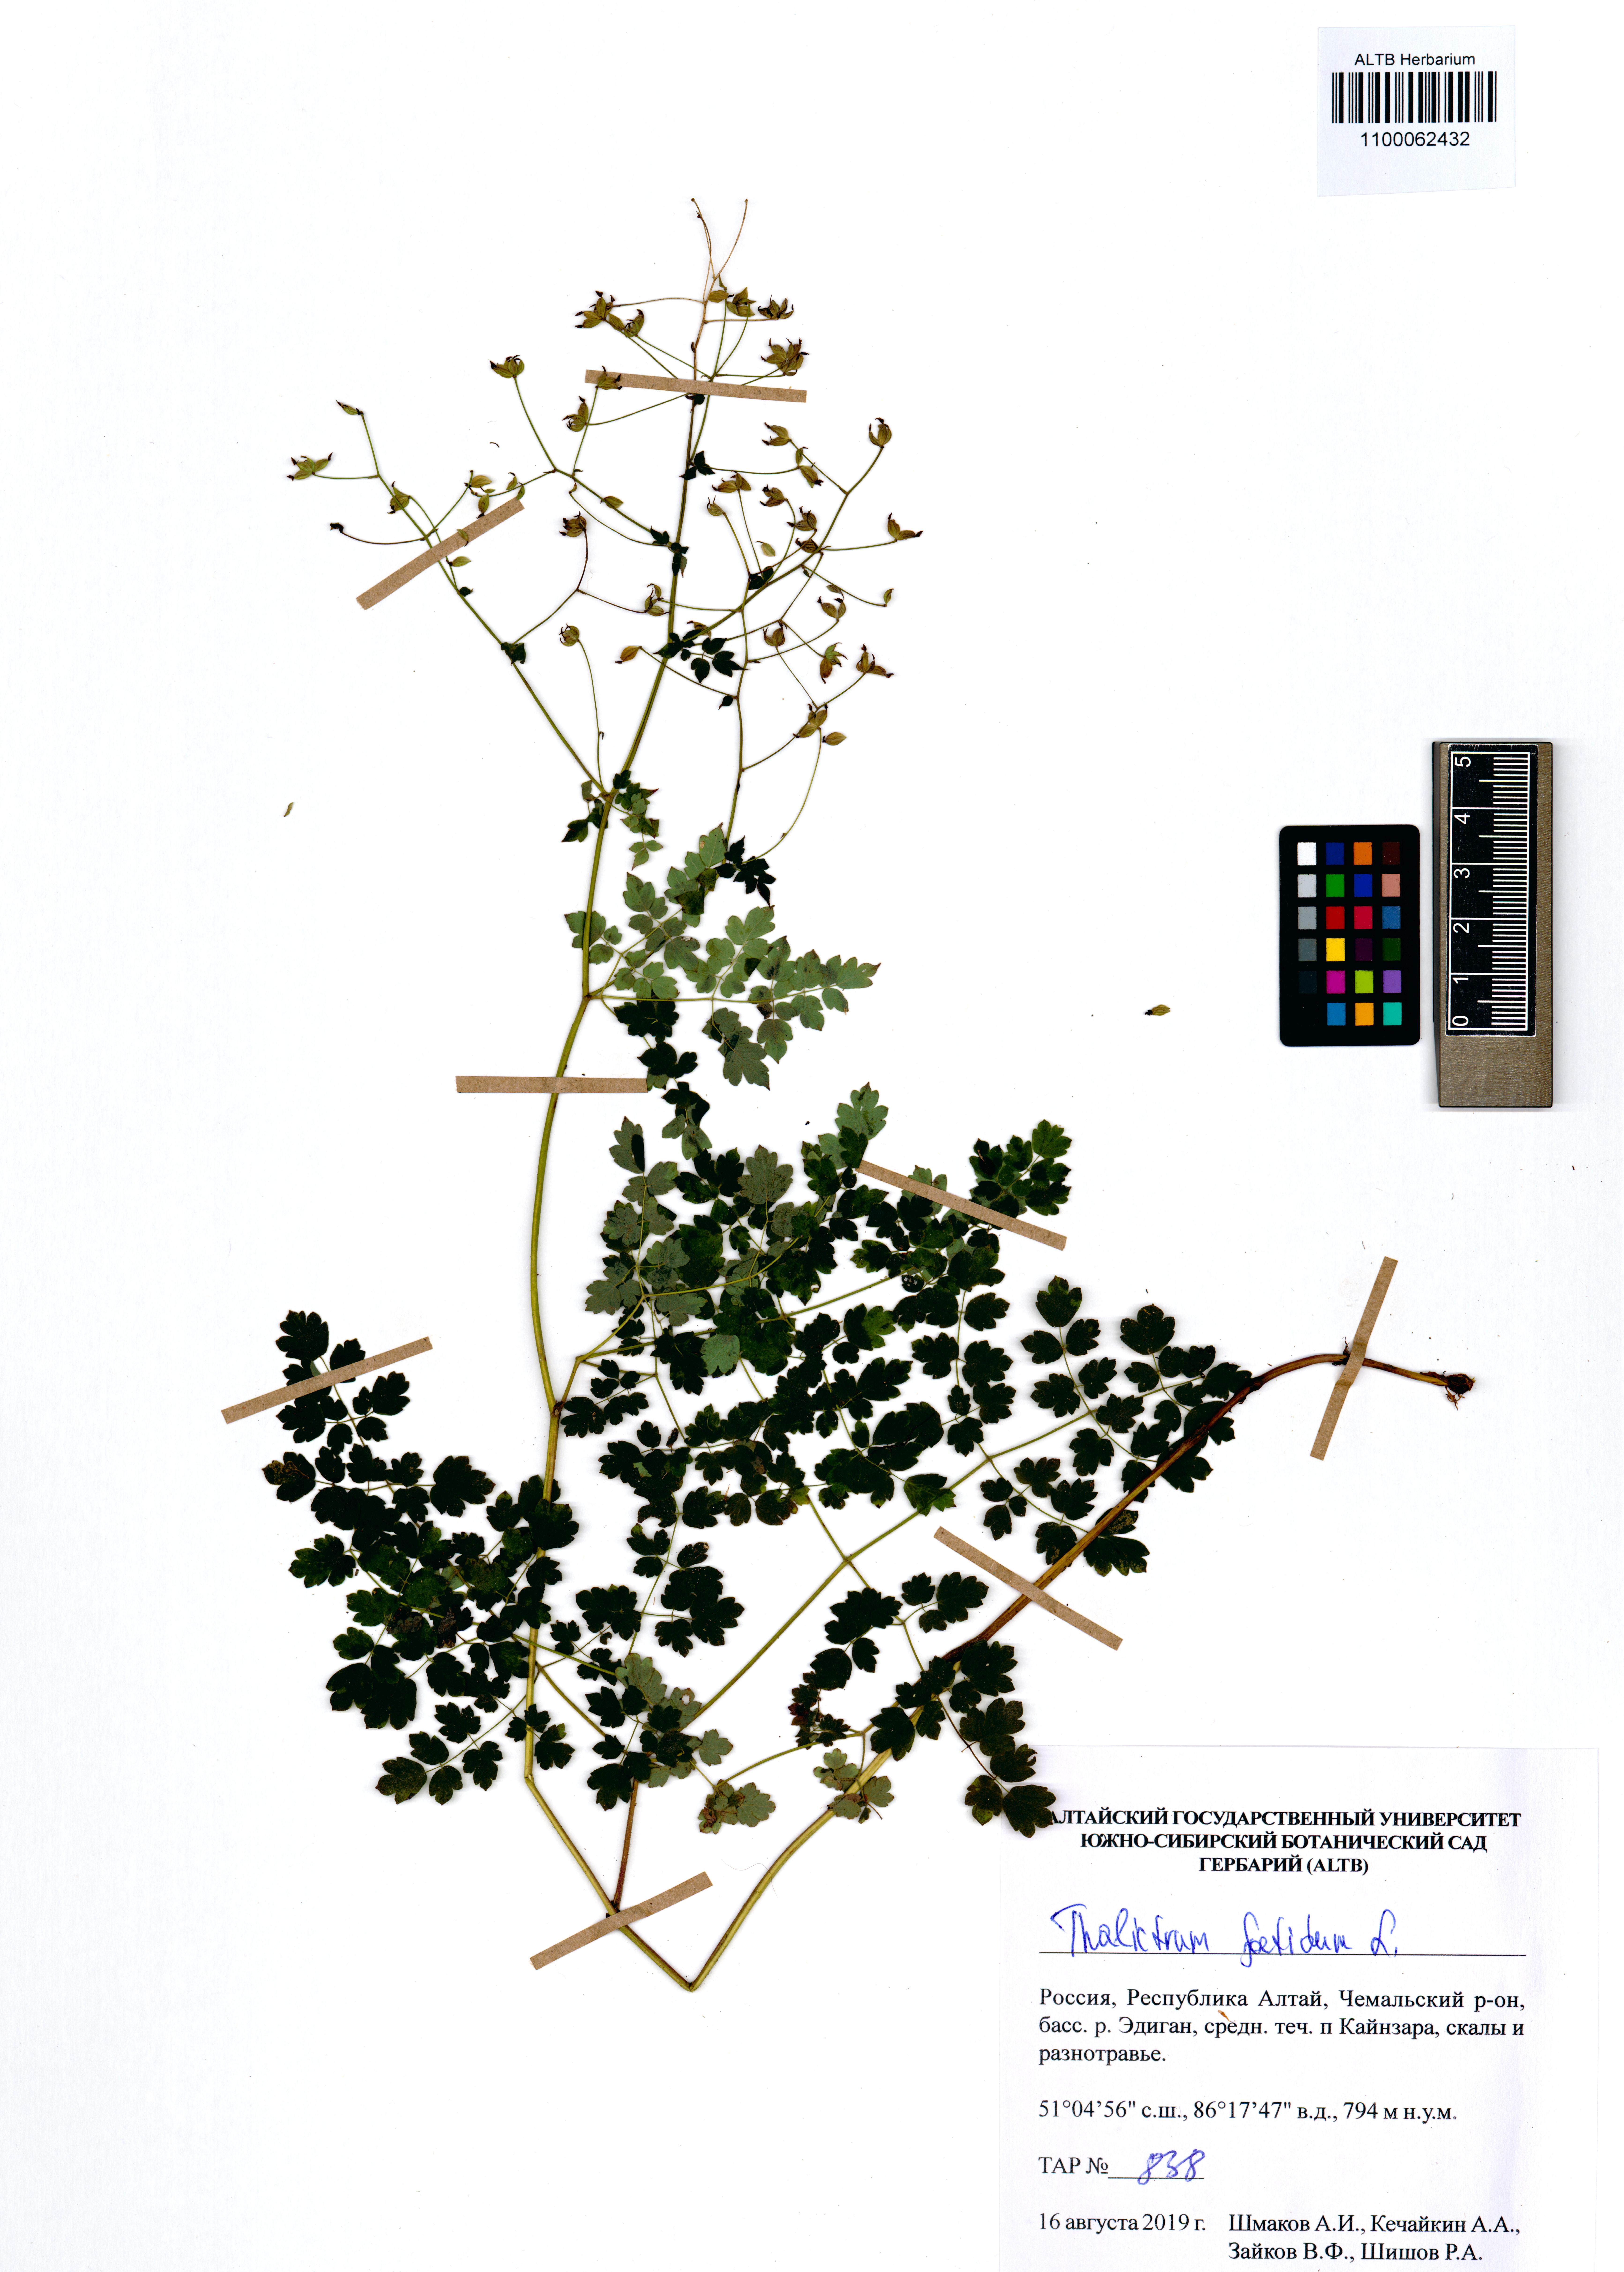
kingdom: Plantae
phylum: Tracheophyta
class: Magnoliopsida
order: Ranunculales
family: Ranunculaceae
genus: Thalictrum
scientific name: Thalictrum foetidum
